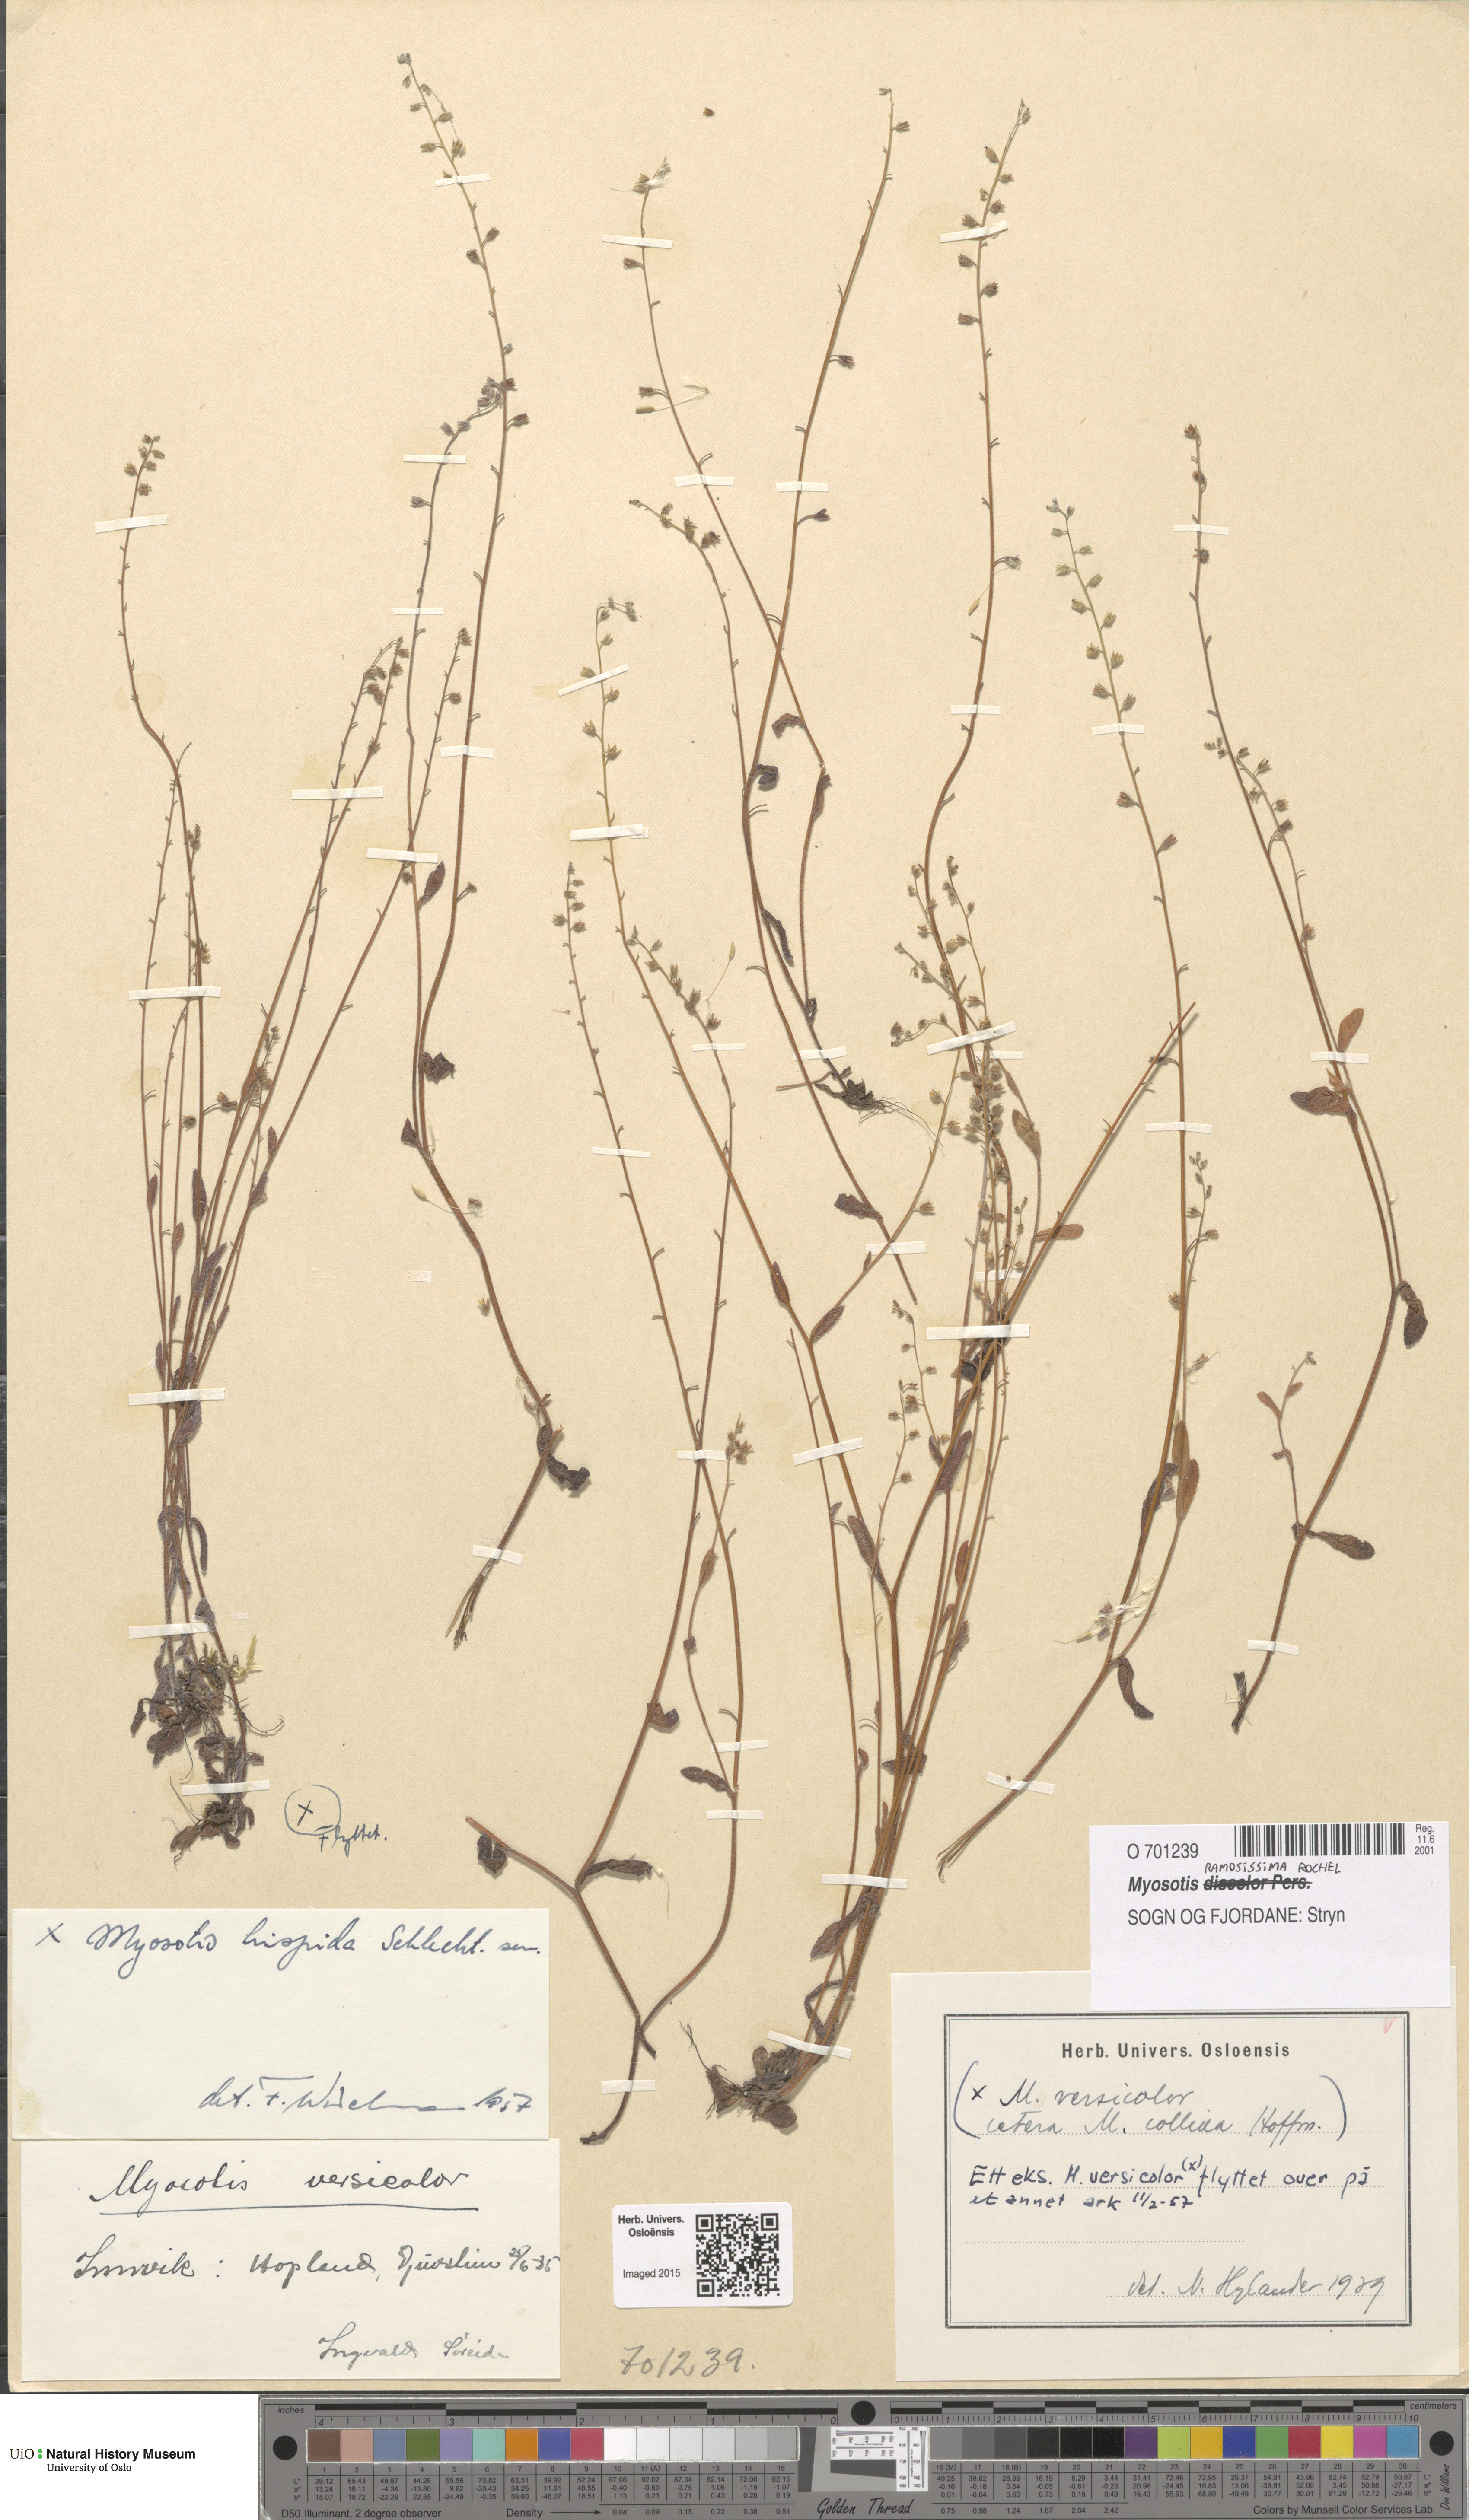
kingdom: Plantae
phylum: Tracheophyta
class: Magnoliopsida
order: Boraginales
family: Boraginaceae
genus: Myosotis
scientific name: Myosotis ramosissima
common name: Early forget-me-not
